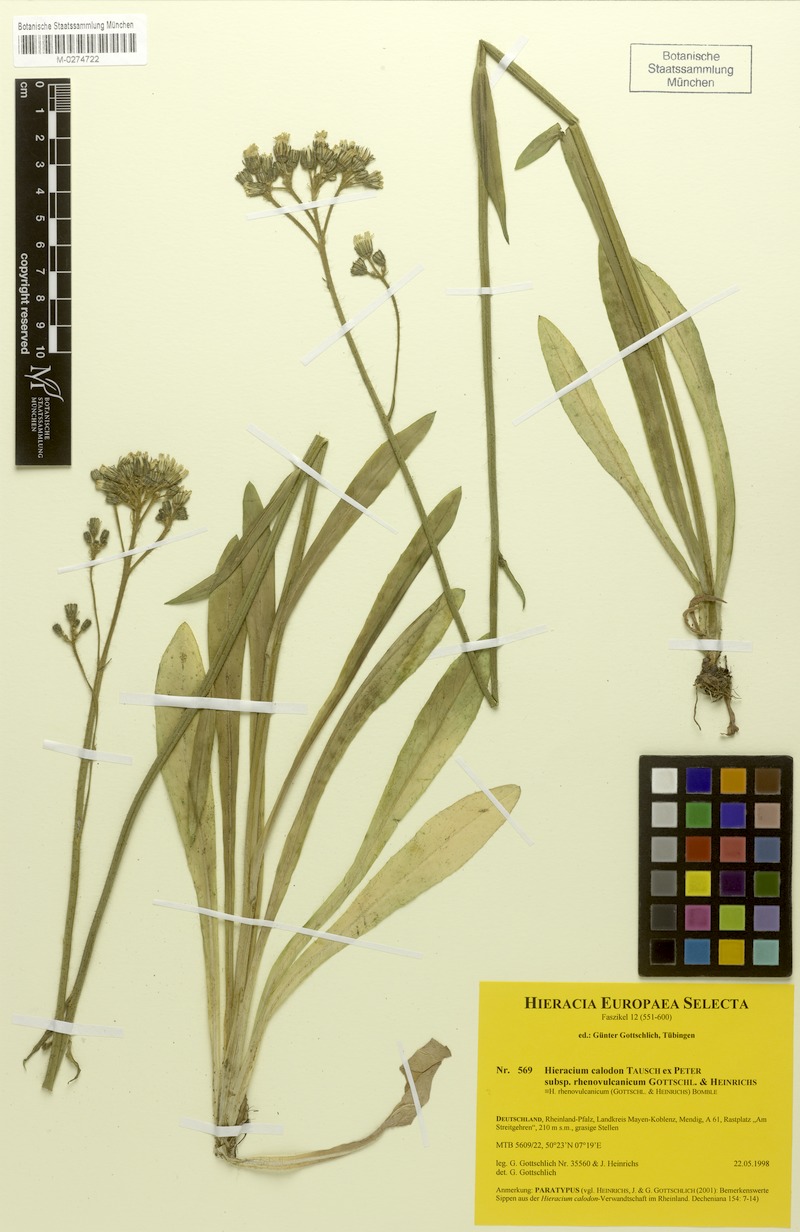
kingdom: Plantae
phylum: Tracheophyta
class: Magnoliopsida
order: Asterales
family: Asteraceae
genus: Pilosella
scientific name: Pilosella calodon
